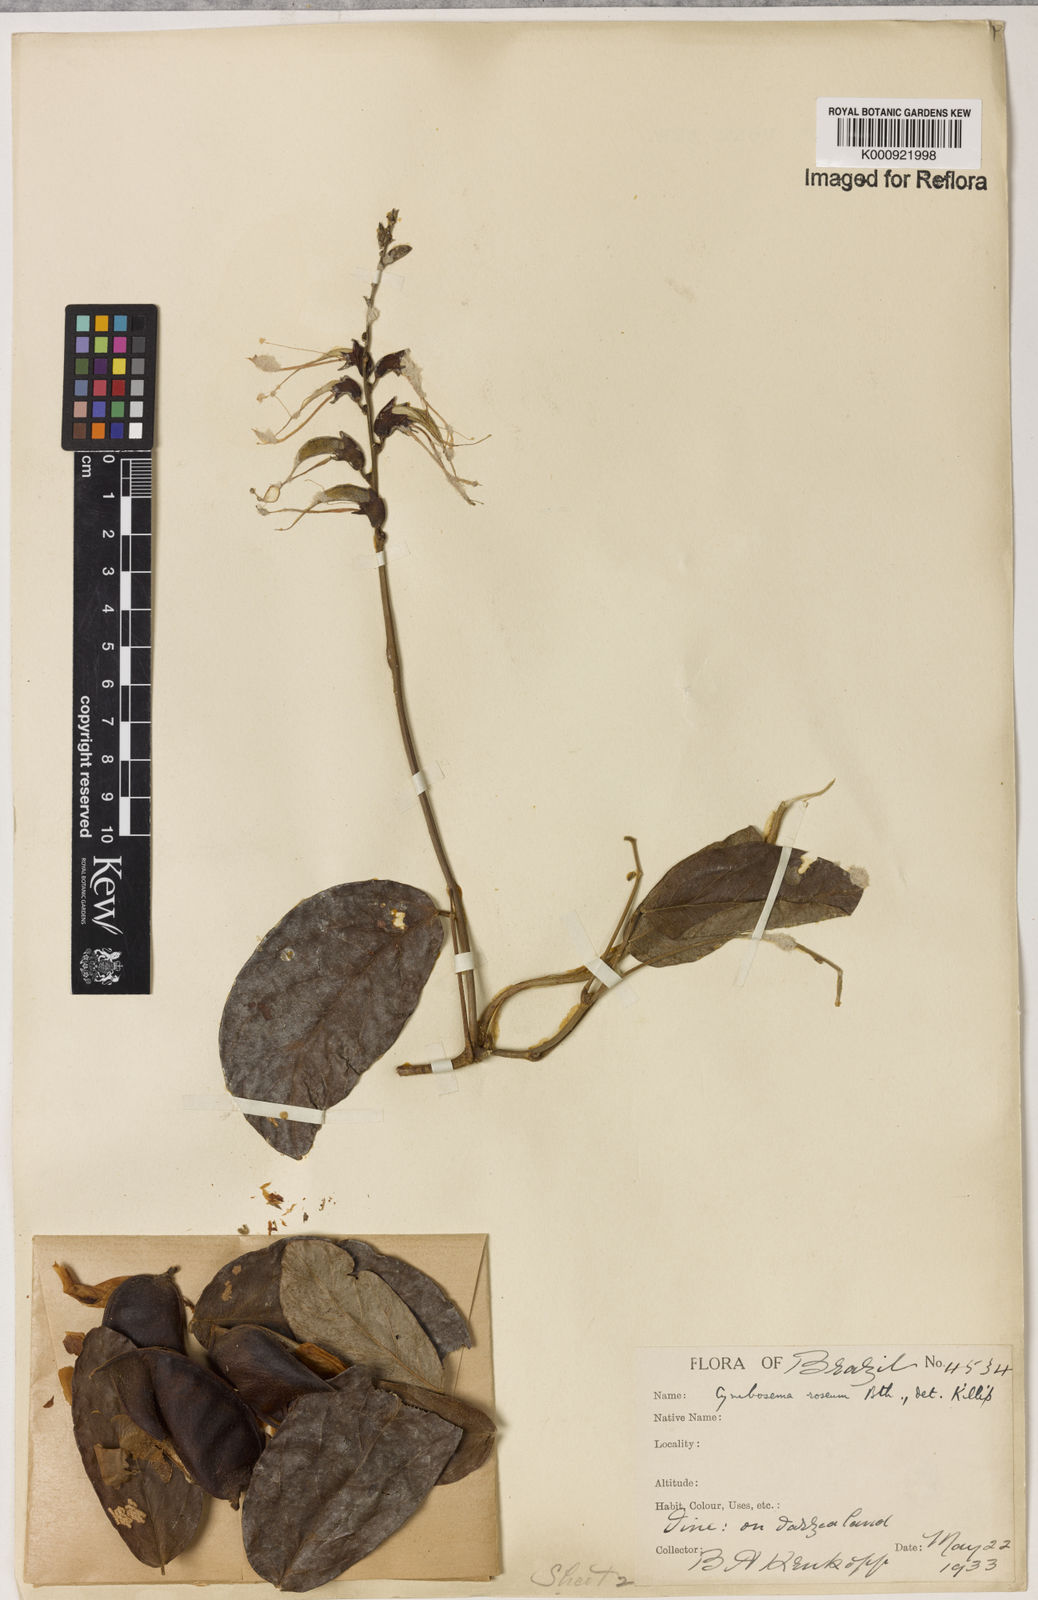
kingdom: Plantae
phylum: Tracheophyta
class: Magnoliopsida
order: Fabales
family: Fabaceae
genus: Cymbosema
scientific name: Cymbosema roseum
